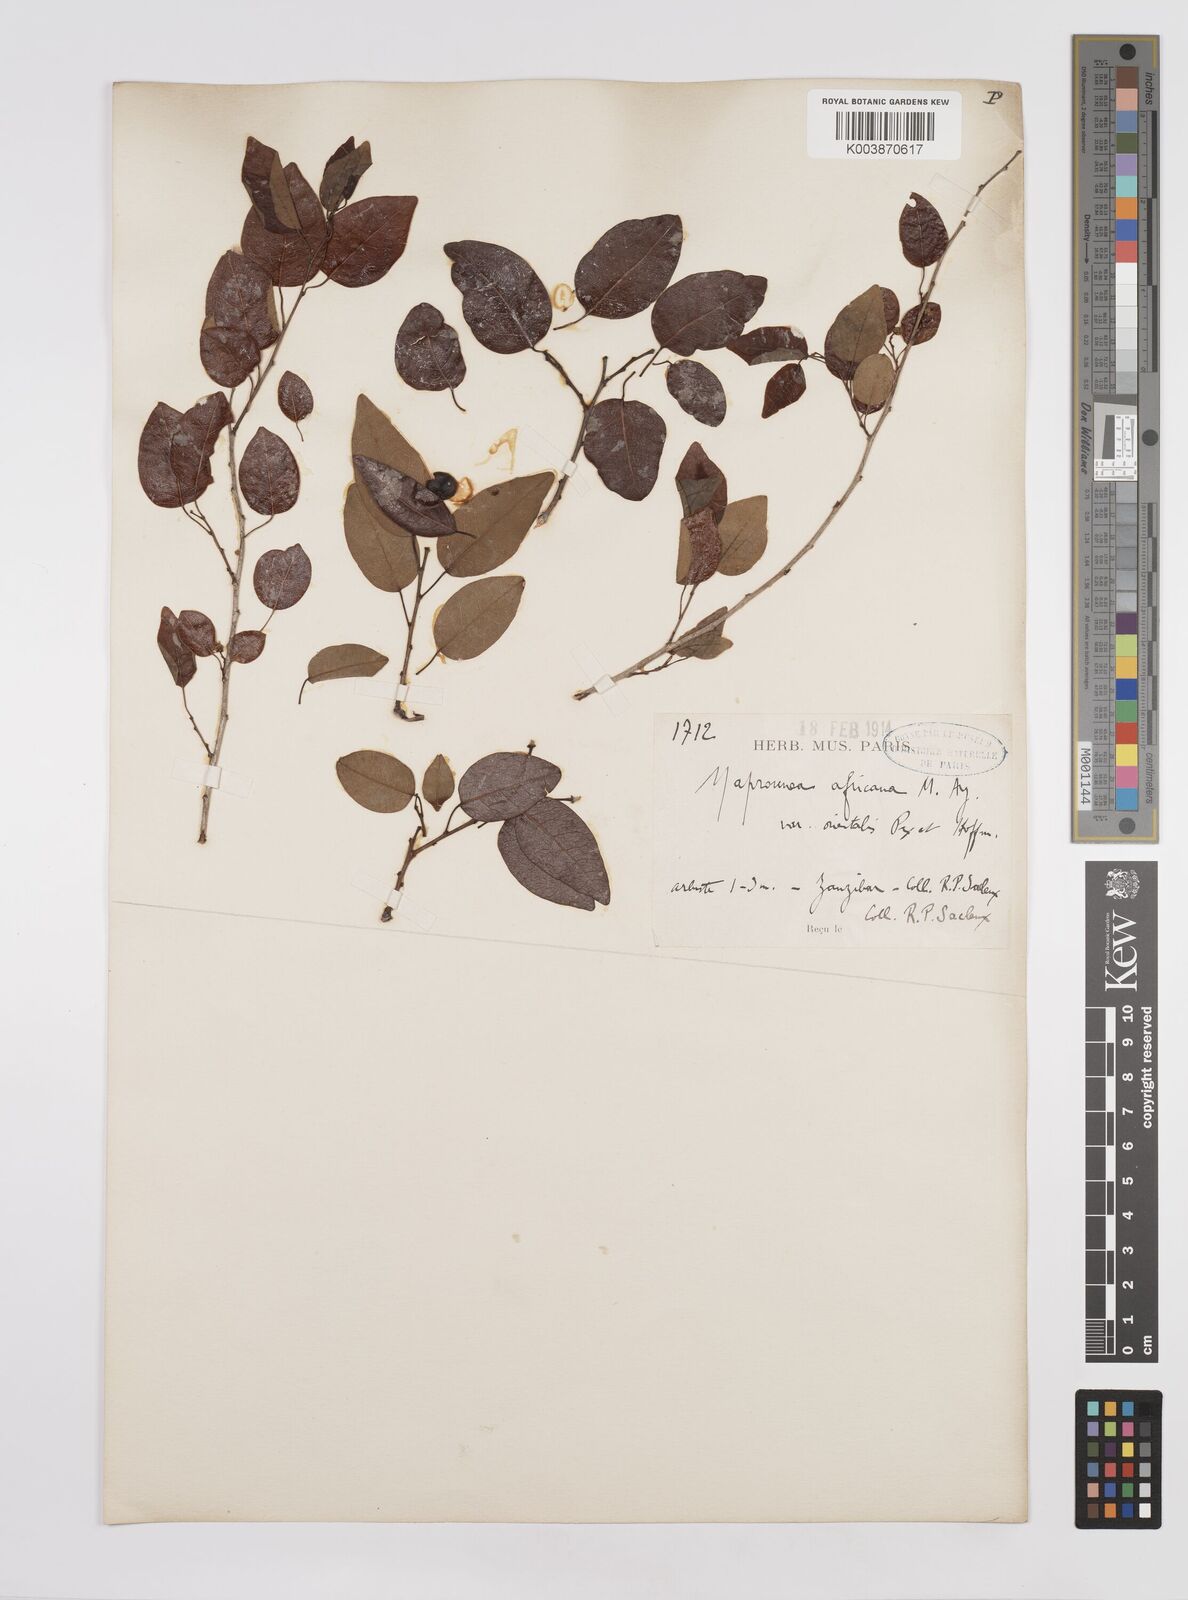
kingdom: Plantae
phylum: Tracheophyta
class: Magnoliopsida
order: Malpighiales
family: Euphorbiaceae
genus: Maprounea
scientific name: Maprounea africana
